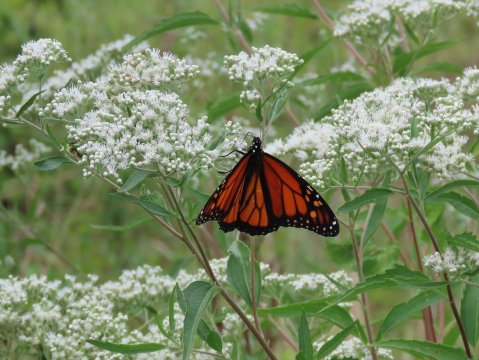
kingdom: Animalia
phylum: Arthropoda
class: Insecta
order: Lepidoptera
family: Nymphalidae
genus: Danaus
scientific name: Danaus plexippus
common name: Monarch
